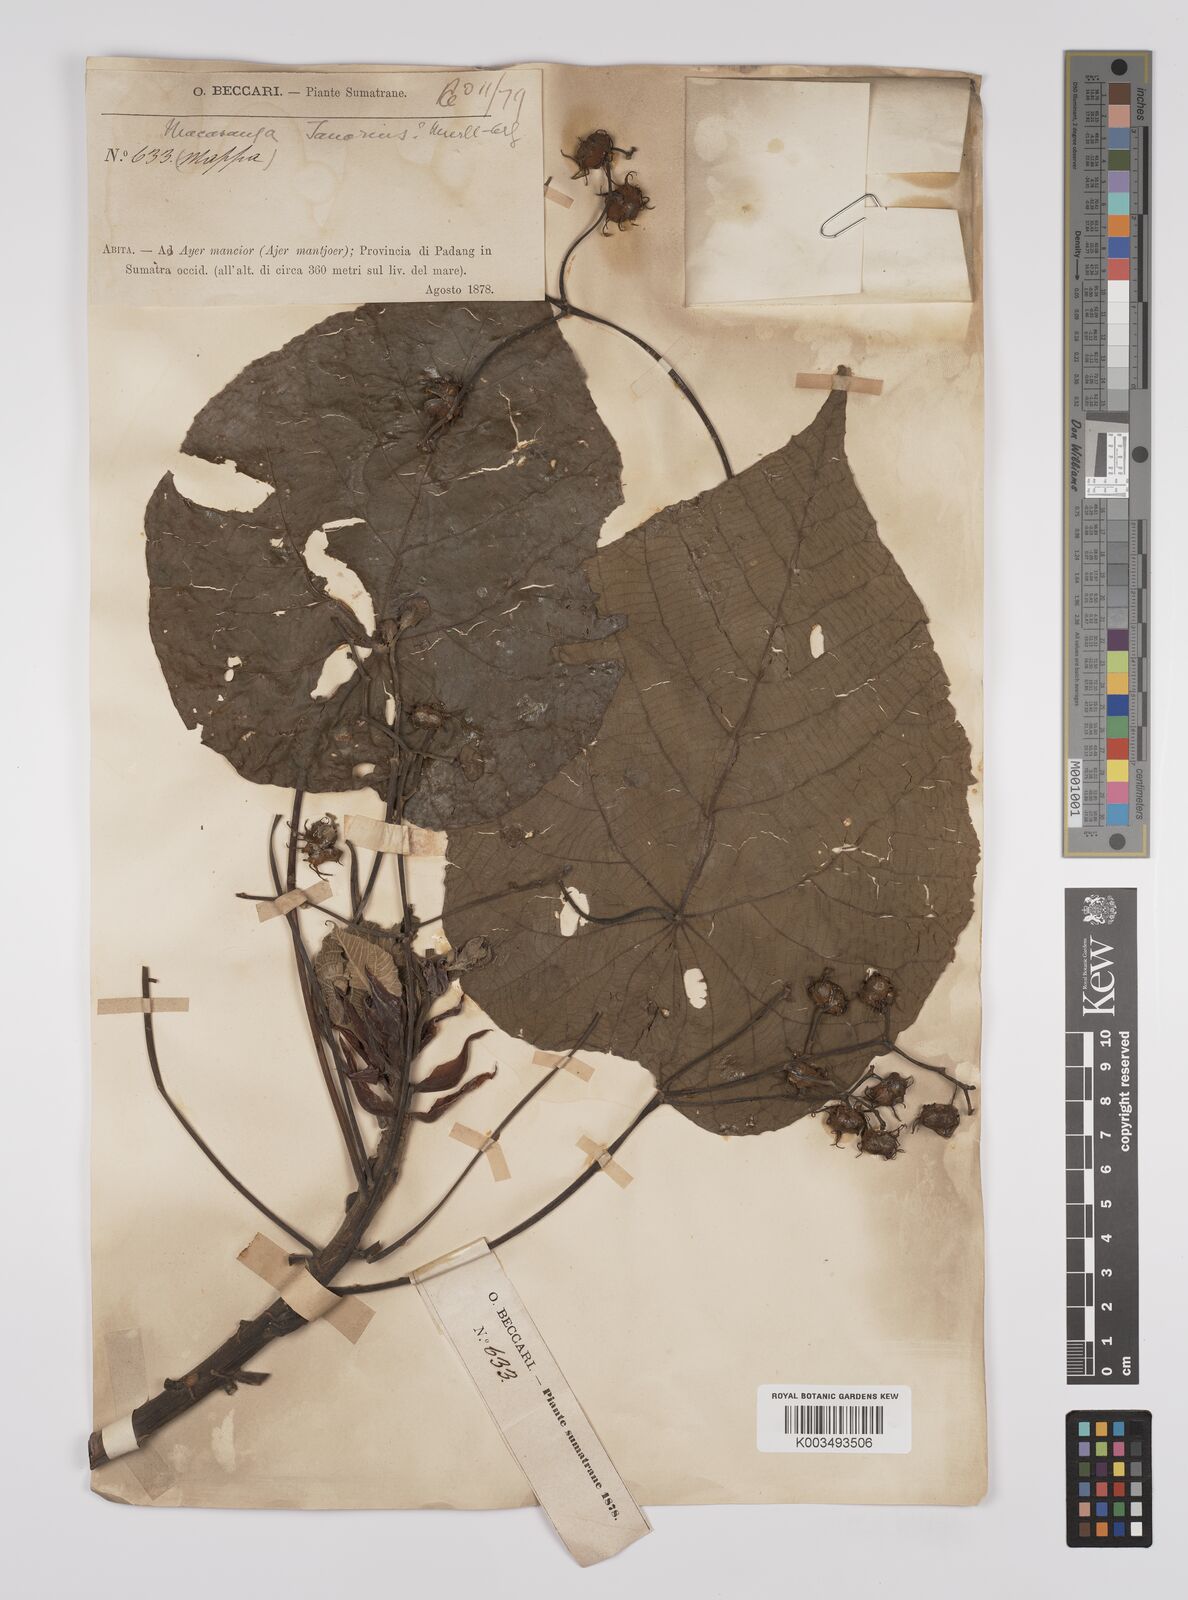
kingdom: Plantae
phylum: Tracheophyta
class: Magnoliopsida
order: Malpighiales
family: Euphorbiaceae
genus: Macaranga
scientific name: Macaranga tanarius
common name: Parasol leaf tree
